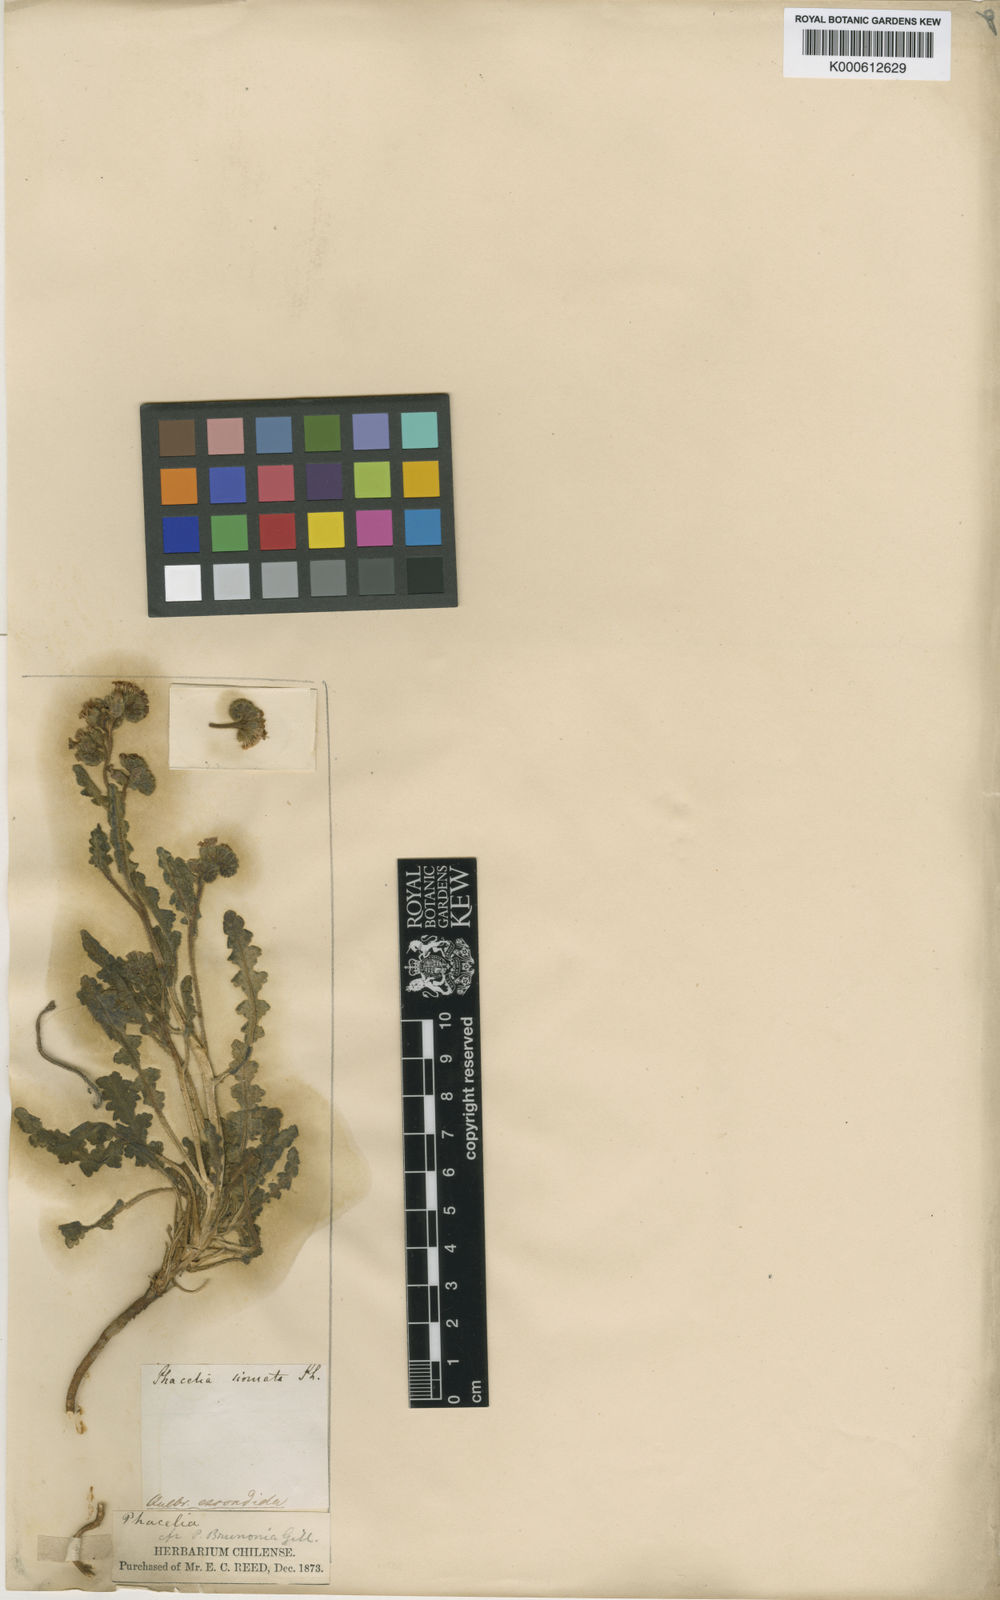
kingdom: Plantae
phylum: Tracheophyta
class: Magnoliopsida
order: Boraginales
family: Hydrophyllaceae
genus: Phacelia
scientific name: Phacelia nana
